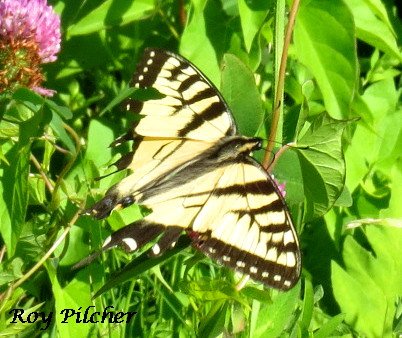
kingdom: Animalia
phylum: Arthropoda
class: Insecta
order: Lepidoptera
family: Papilionidae
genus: Pterourus
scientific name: Pterourus glaucus
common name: Eastern Tiger Swallowtail
